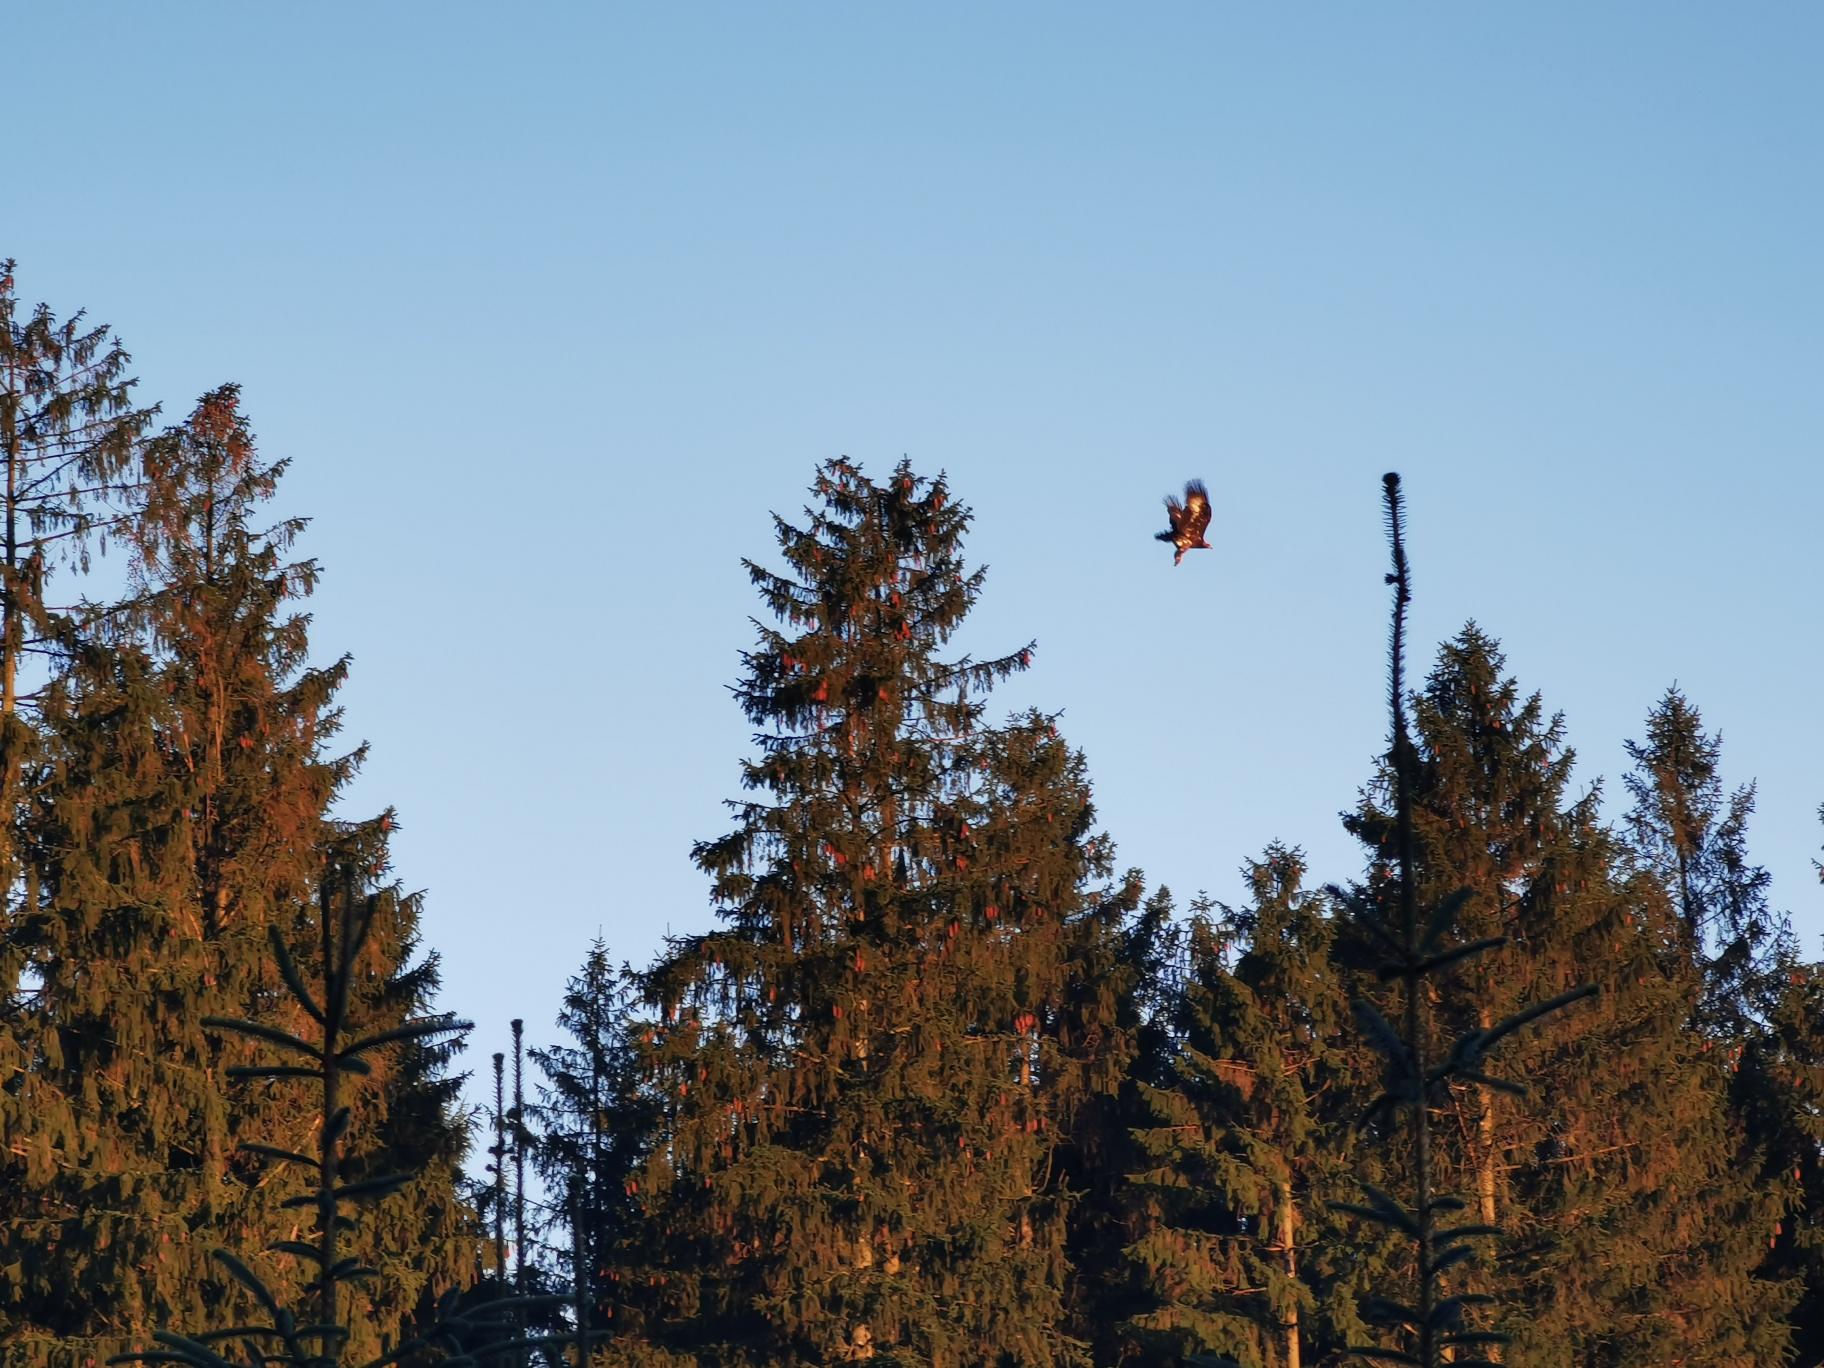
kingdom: Animalia
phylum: Chordata
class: Aves
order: Accipitriformes
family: Accipitridae
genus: Aquila
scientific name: Aquila chrysaetos
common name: Kongeørn
